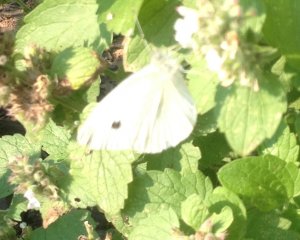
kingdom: Animalia
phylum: Arthropoda
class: Insecta
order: Lepidoptera
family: Pieridae
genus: Pieris
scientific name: Pieris rapae
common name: Cabbage White
